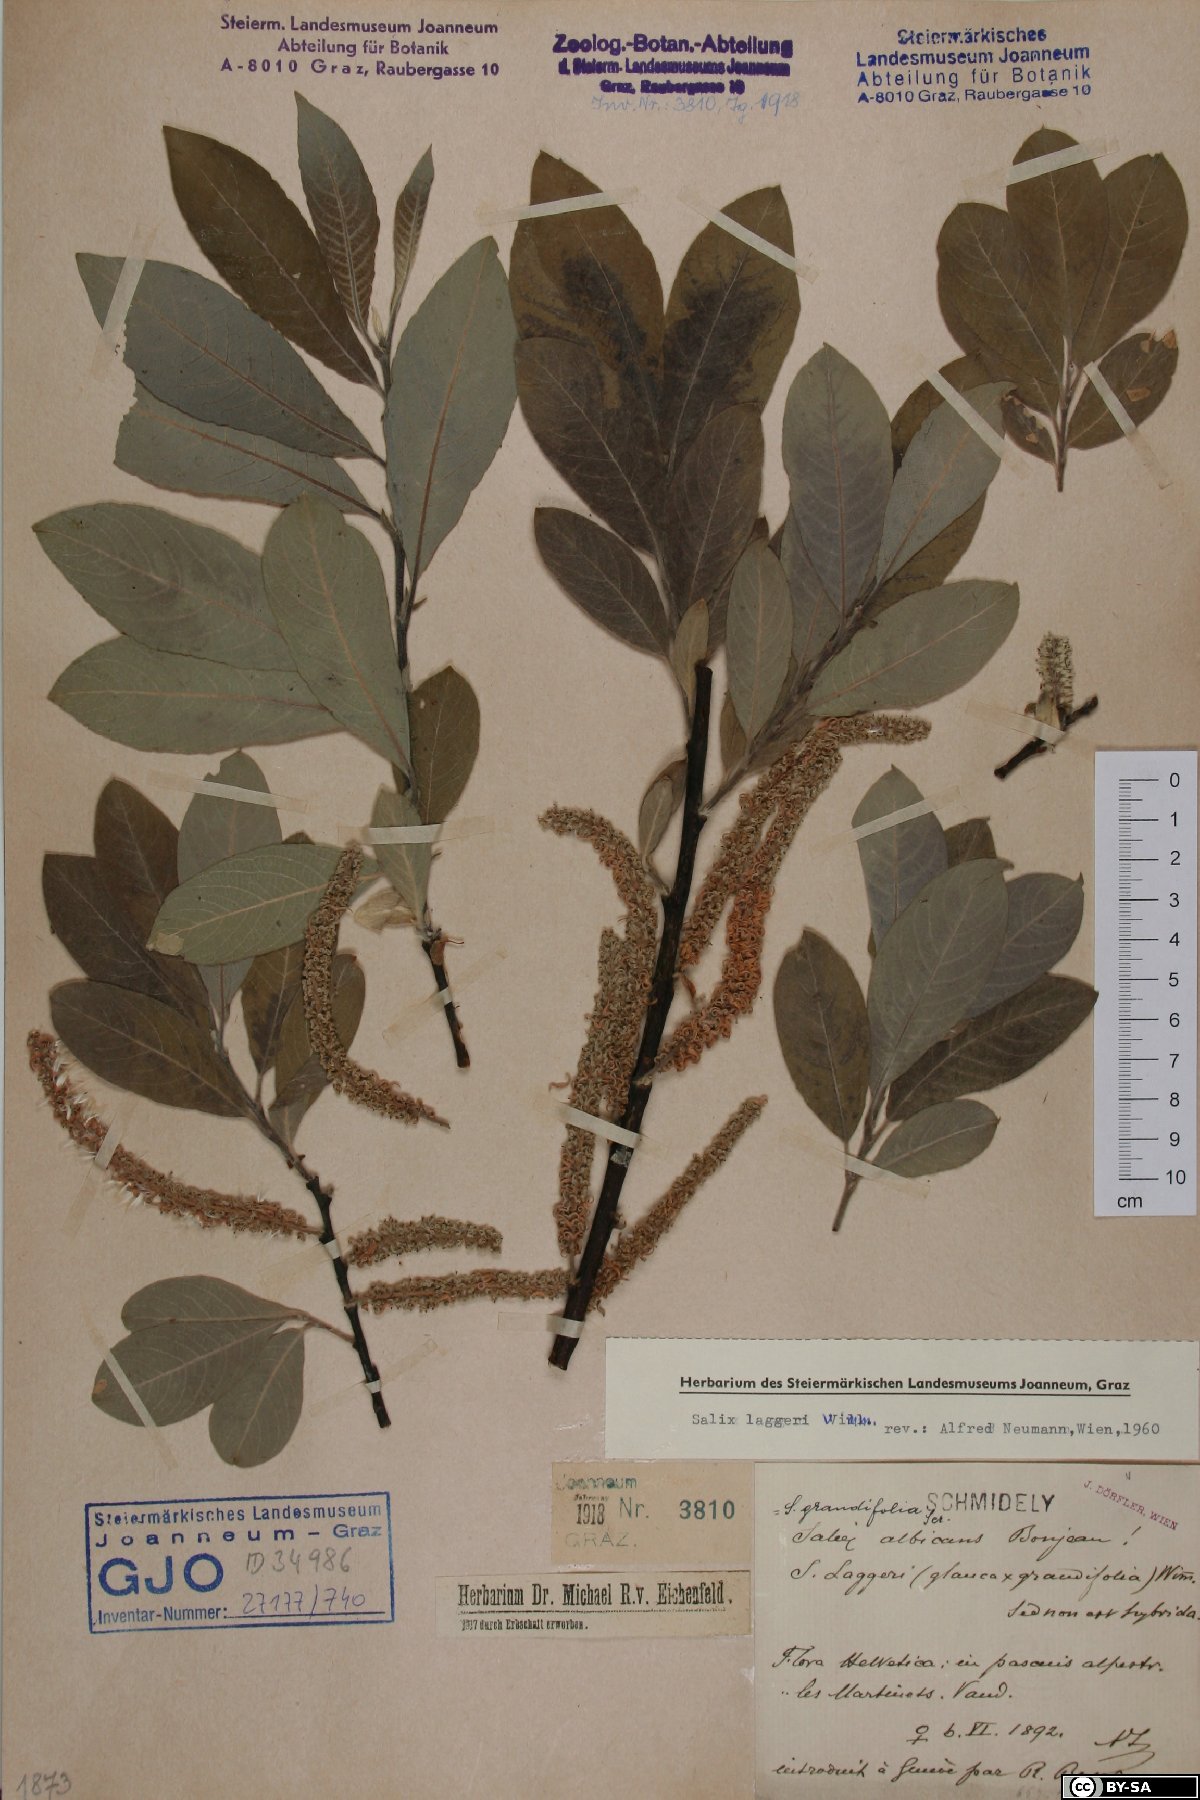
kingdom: Plantae
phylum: Tracheophyta
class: Magnoliopsida
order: Malpighiales
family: Salicaceae
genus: Salix
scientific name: Salix laggeri
